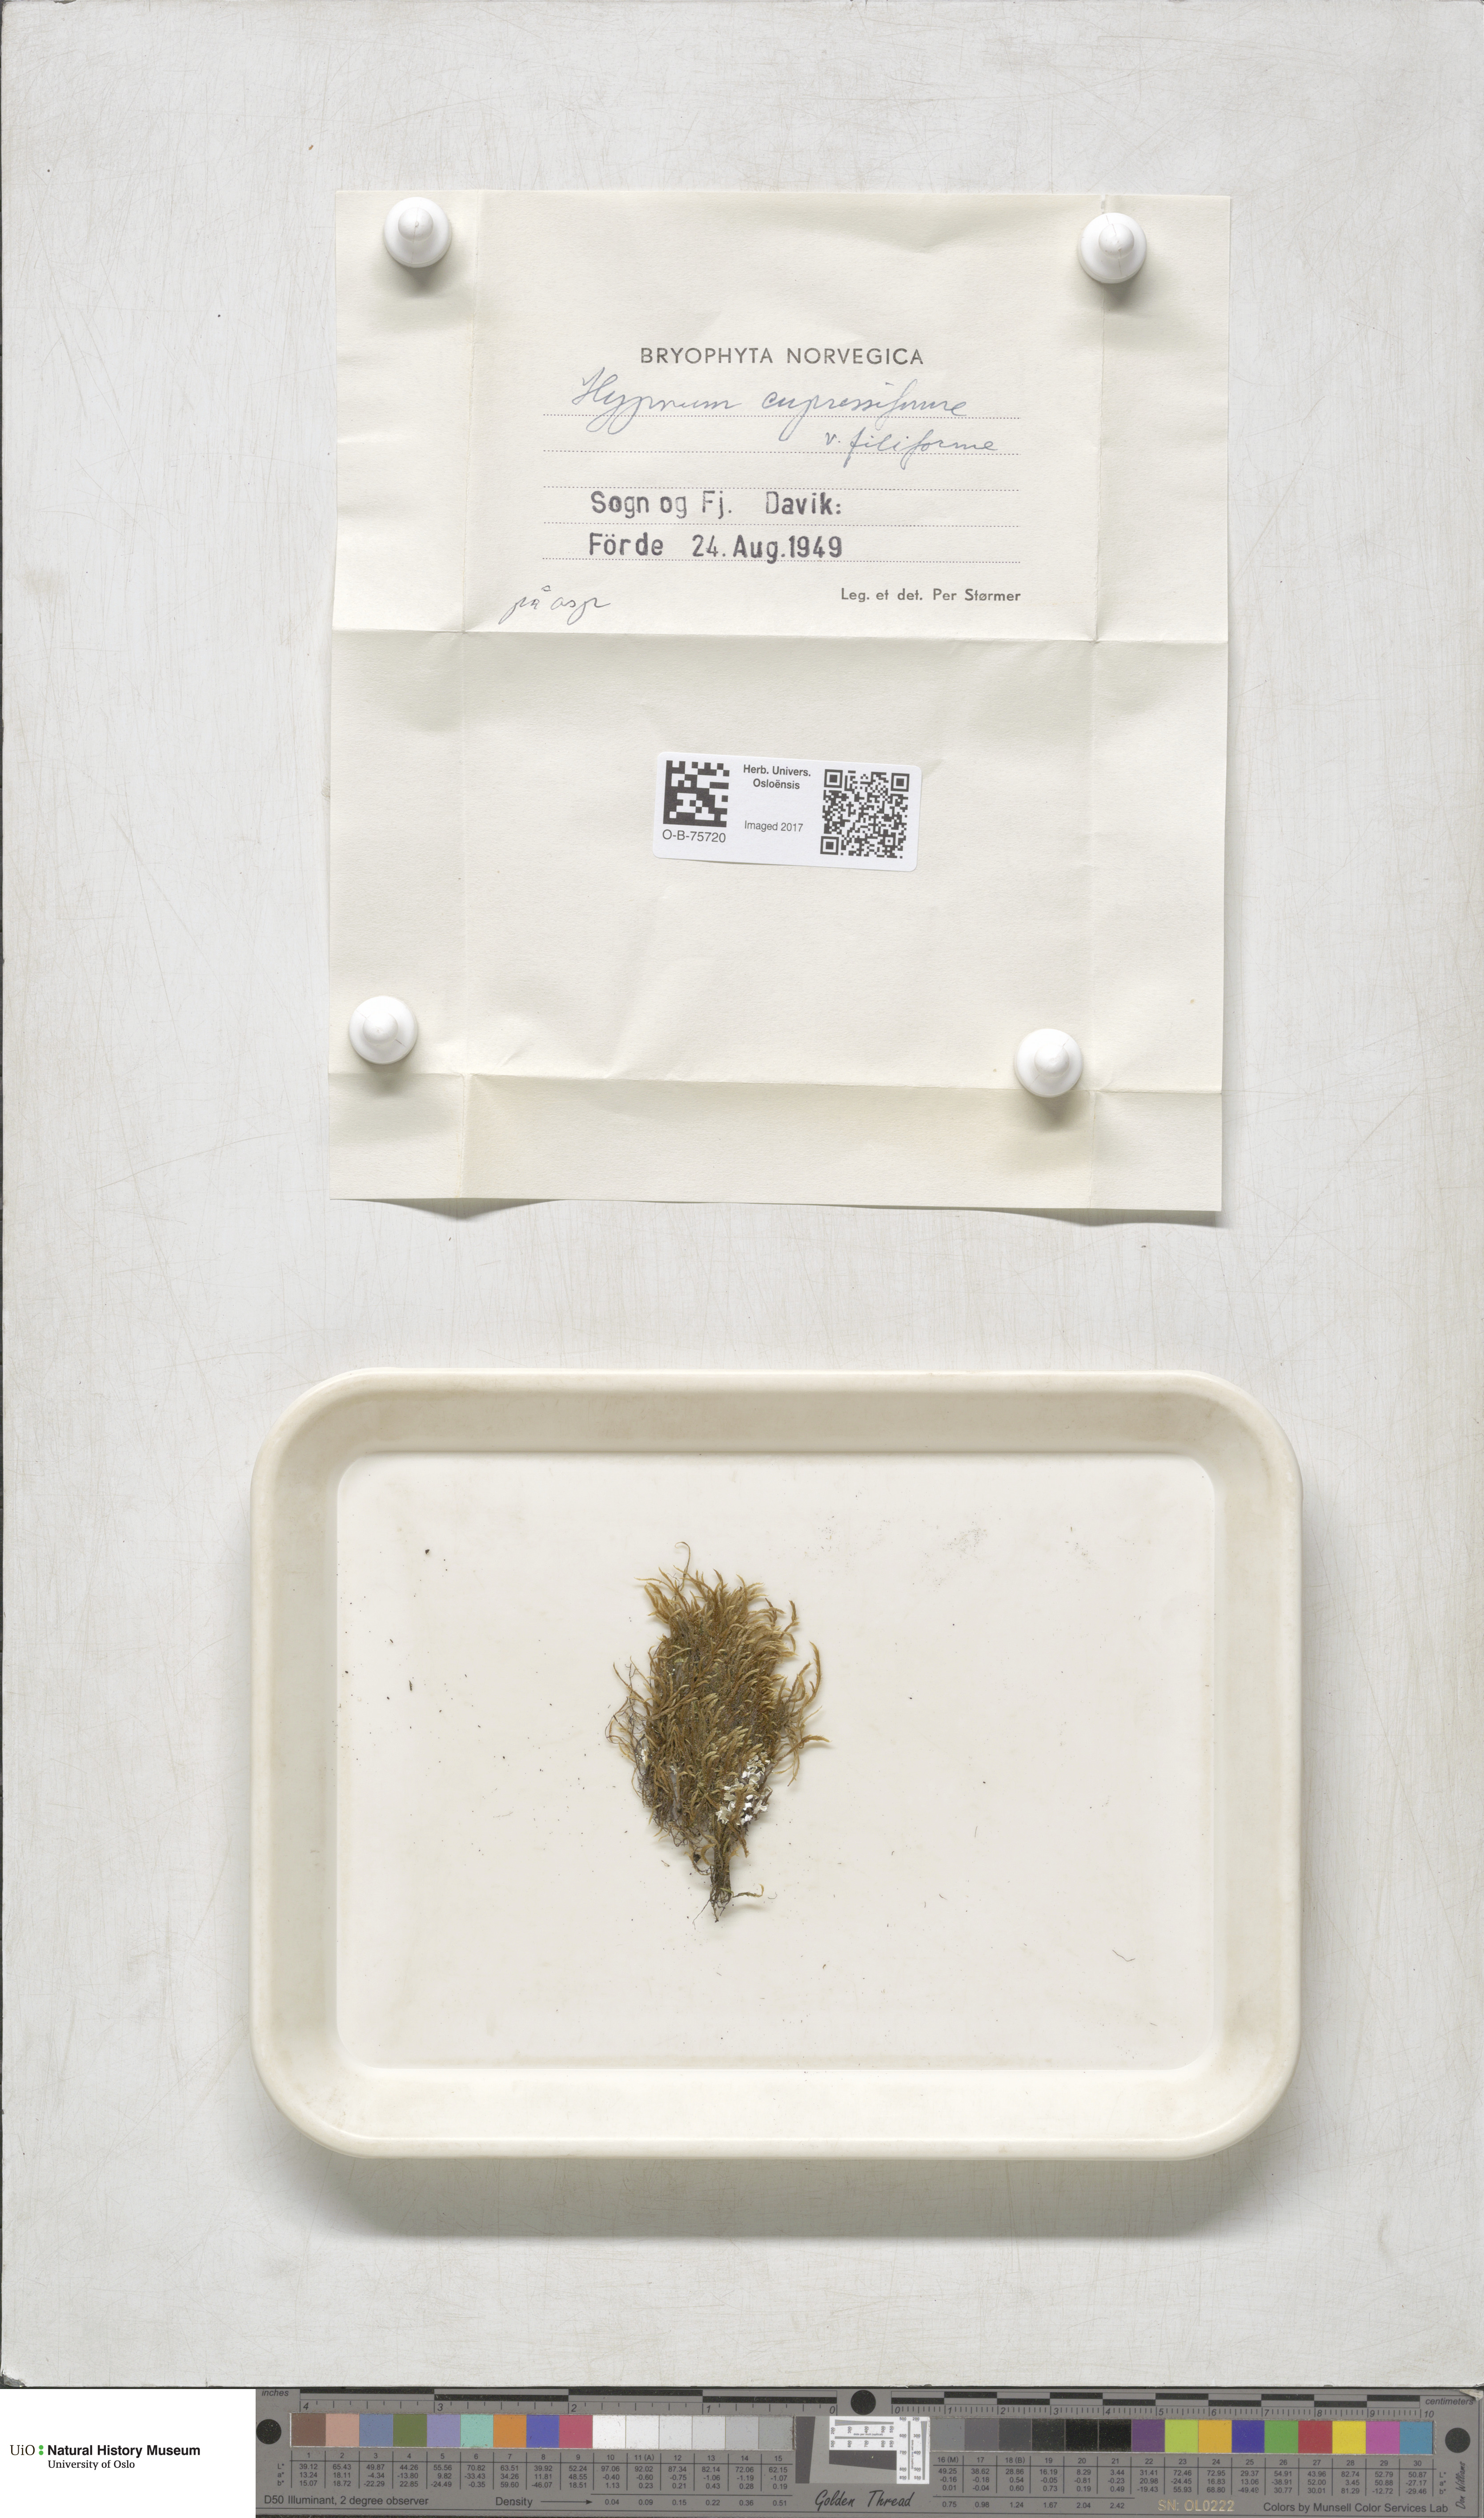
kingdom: Plantae
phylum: Bryophyta
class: Bryopsida
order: Hypnales
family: Hypnaceae
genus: Hypnum
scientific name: Hypnum andoi
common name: Ando's plait moss
